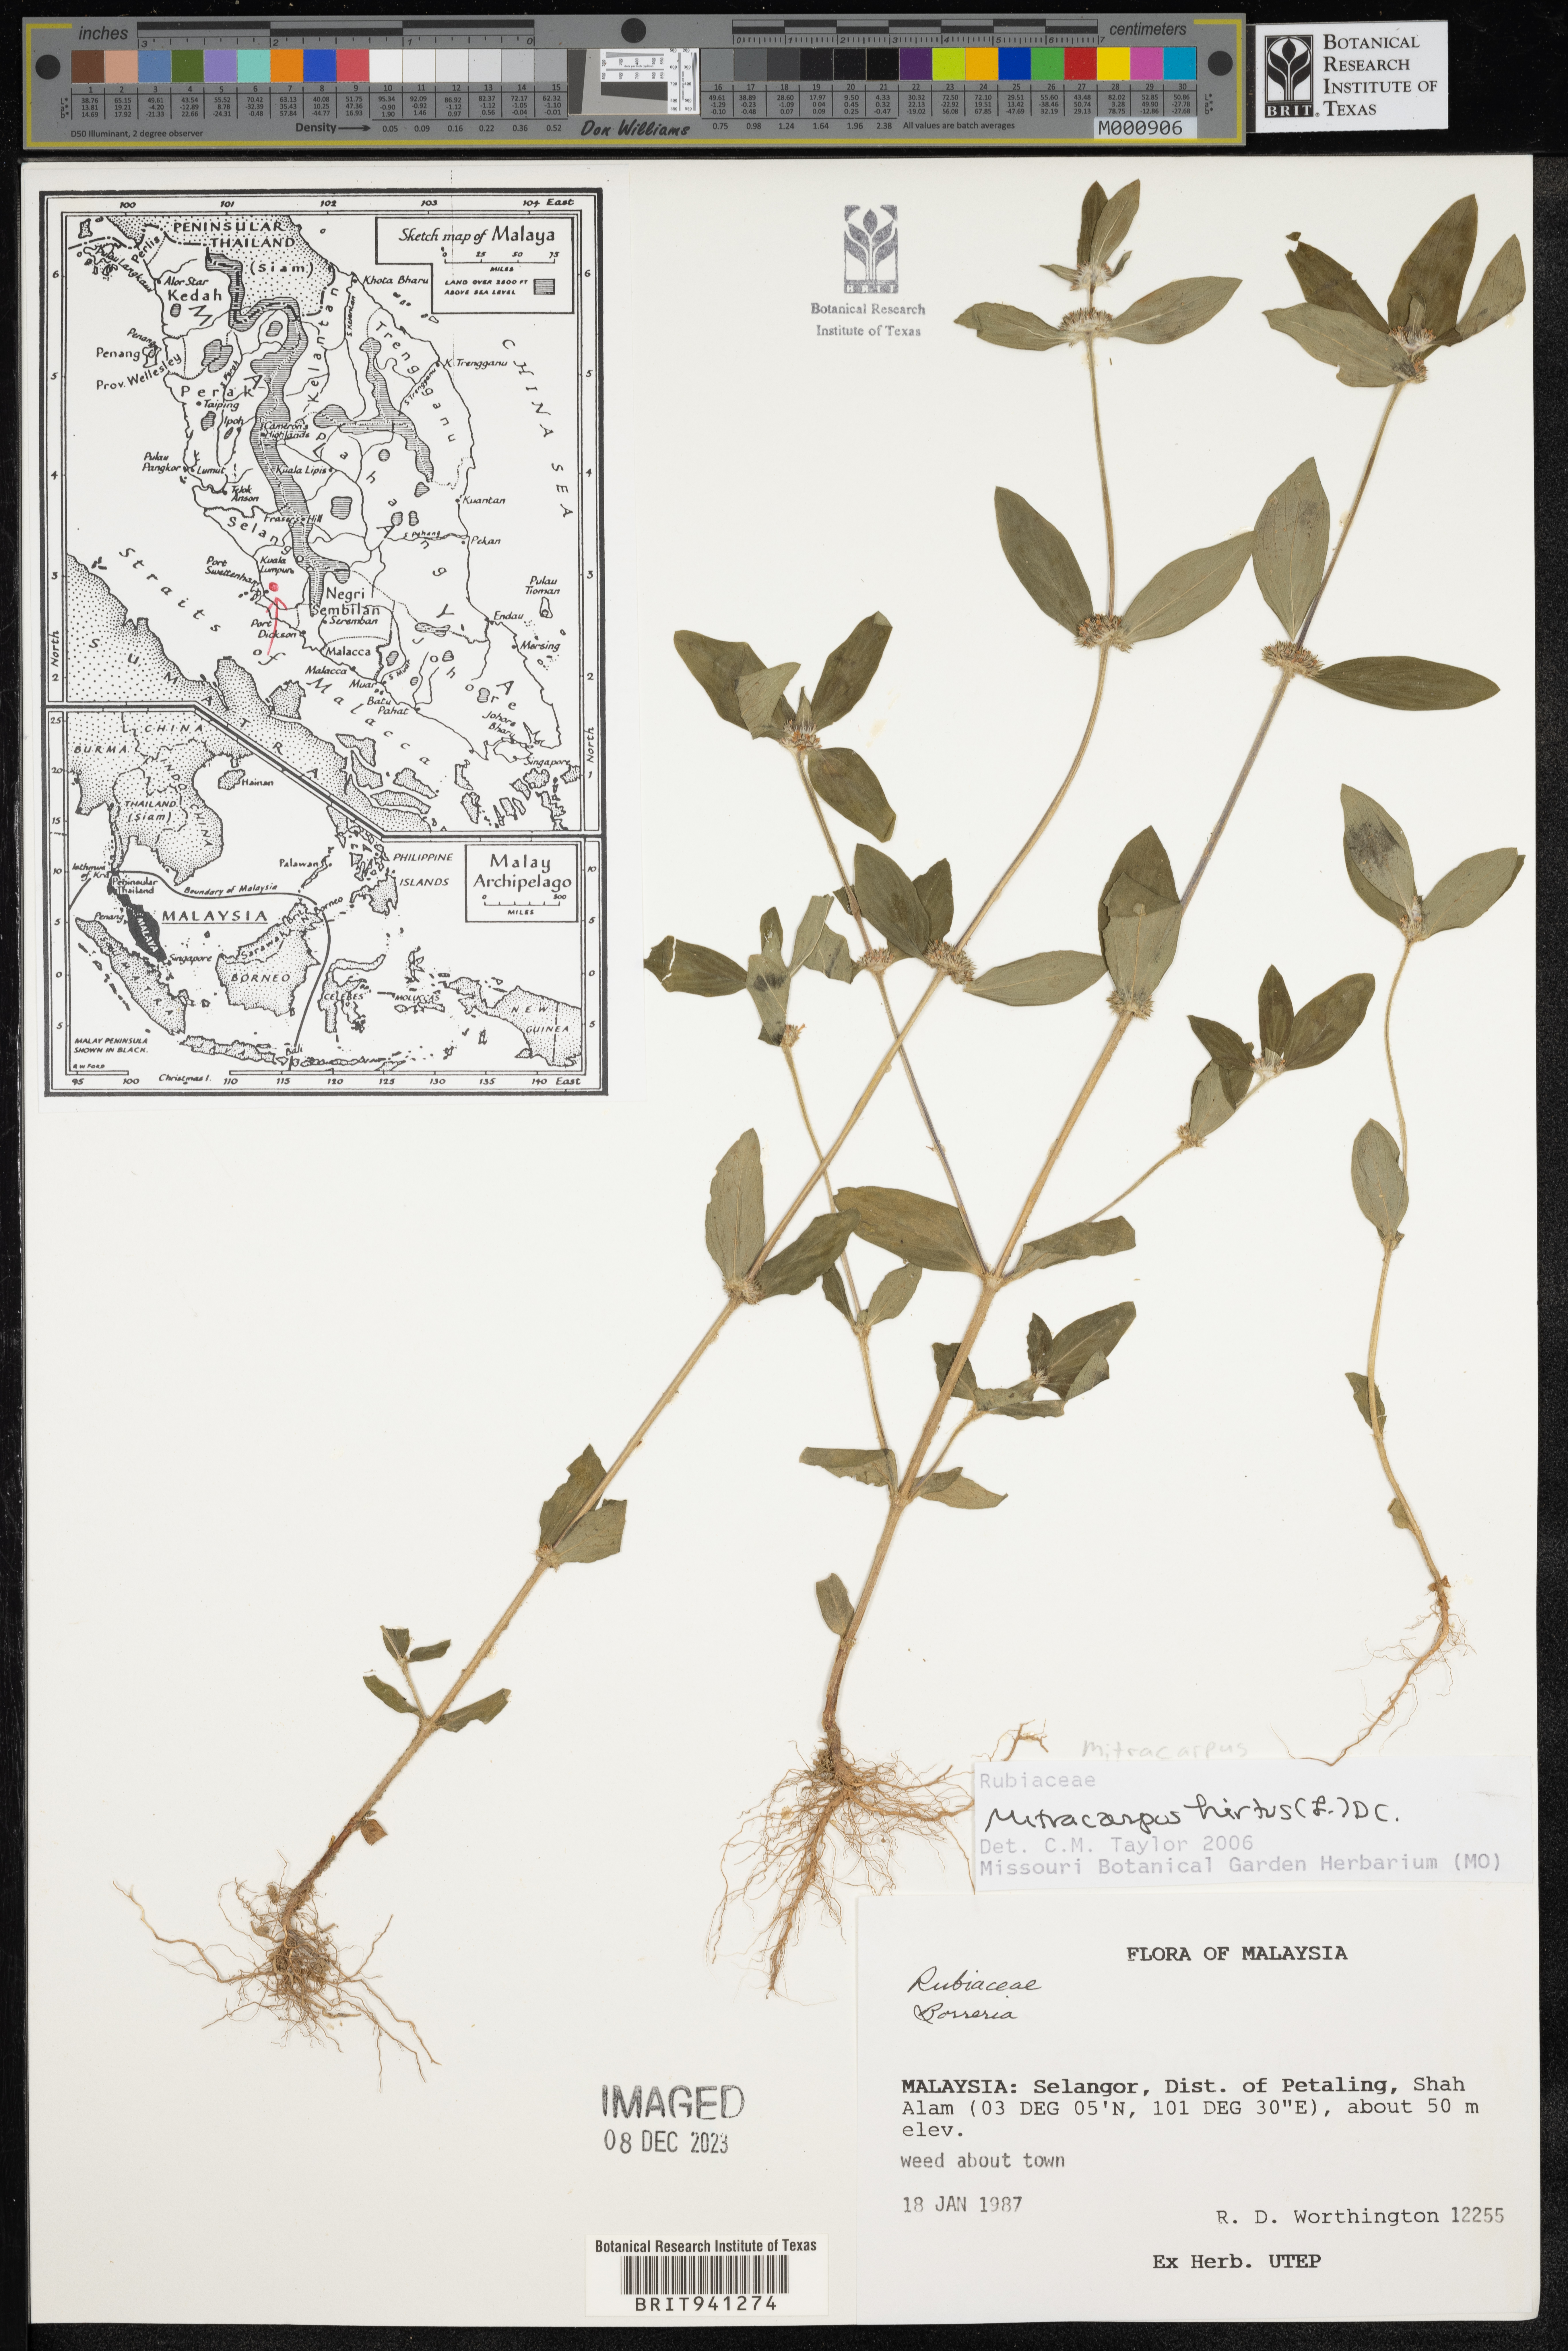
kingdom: Plantae
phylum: Tracheophyta
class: Magnoliopsida
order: Gentianales
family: Rubiaceae
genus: Mitracarpus
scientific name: Mitracarpus
